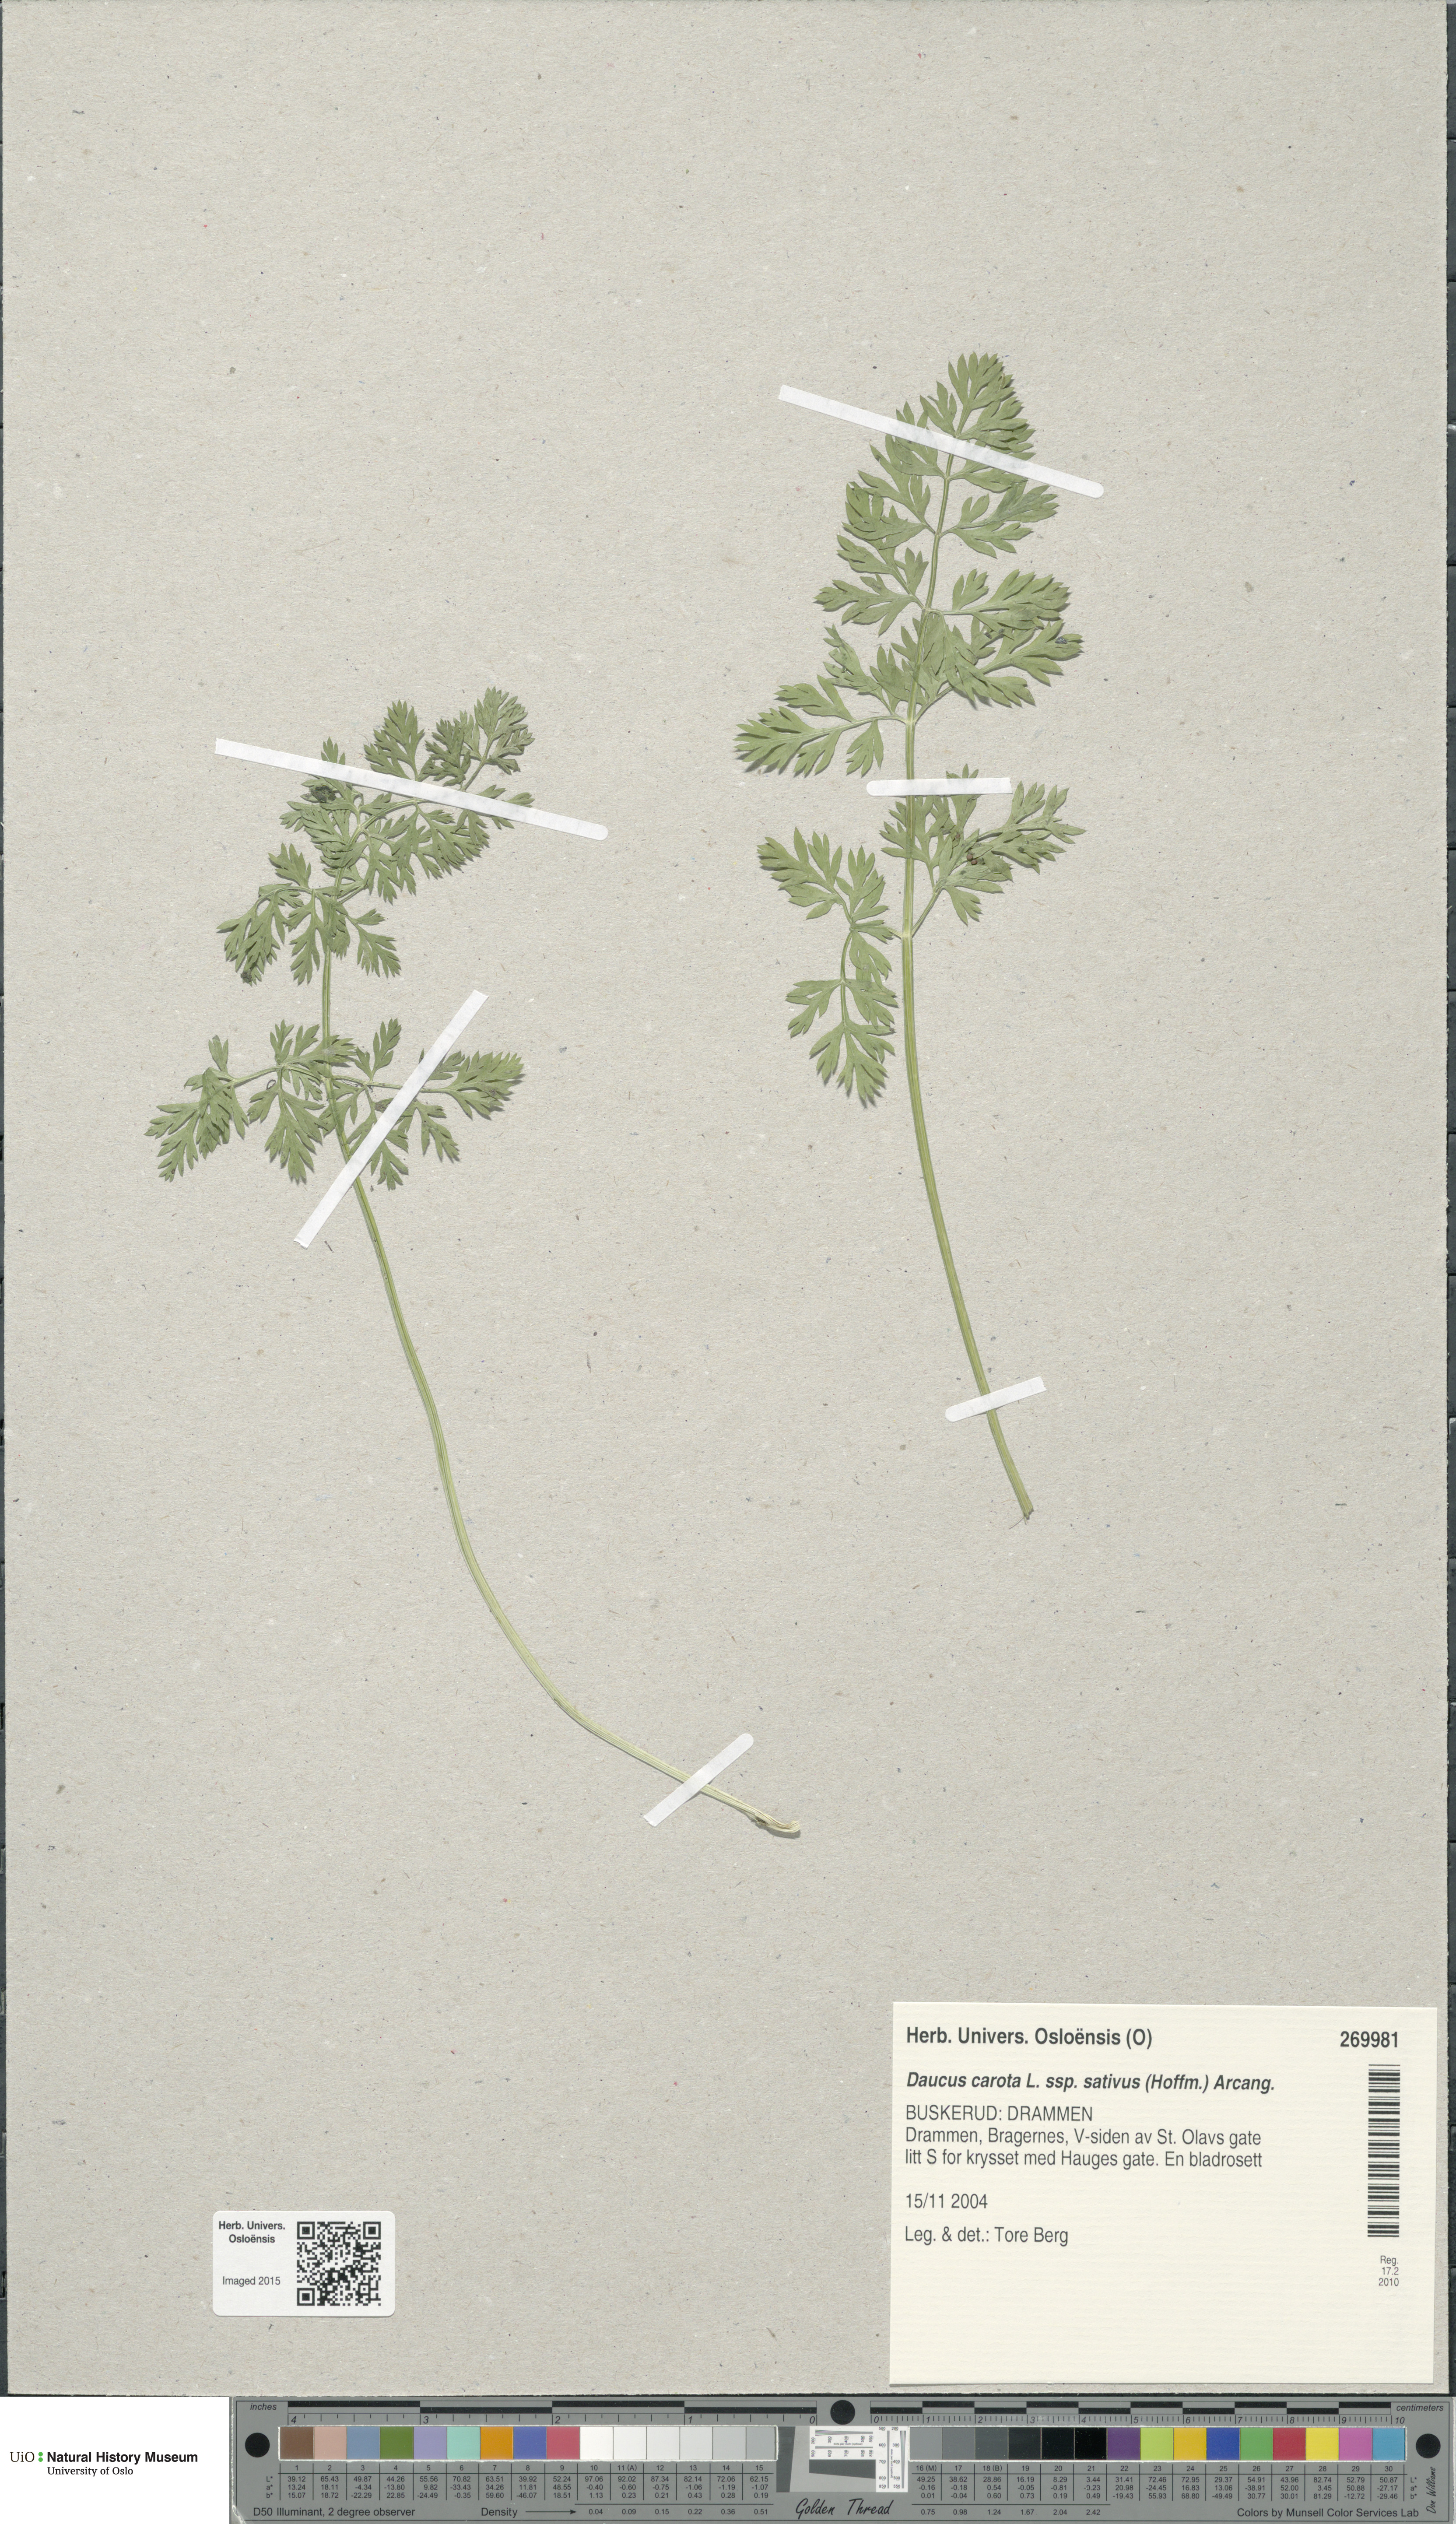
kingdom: Plantae
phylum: Tracheophyta
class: Magnoliopsida
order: Apiales
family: Apiaceae
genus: Daucus
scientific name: Daucus carota
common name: Wild carrot
